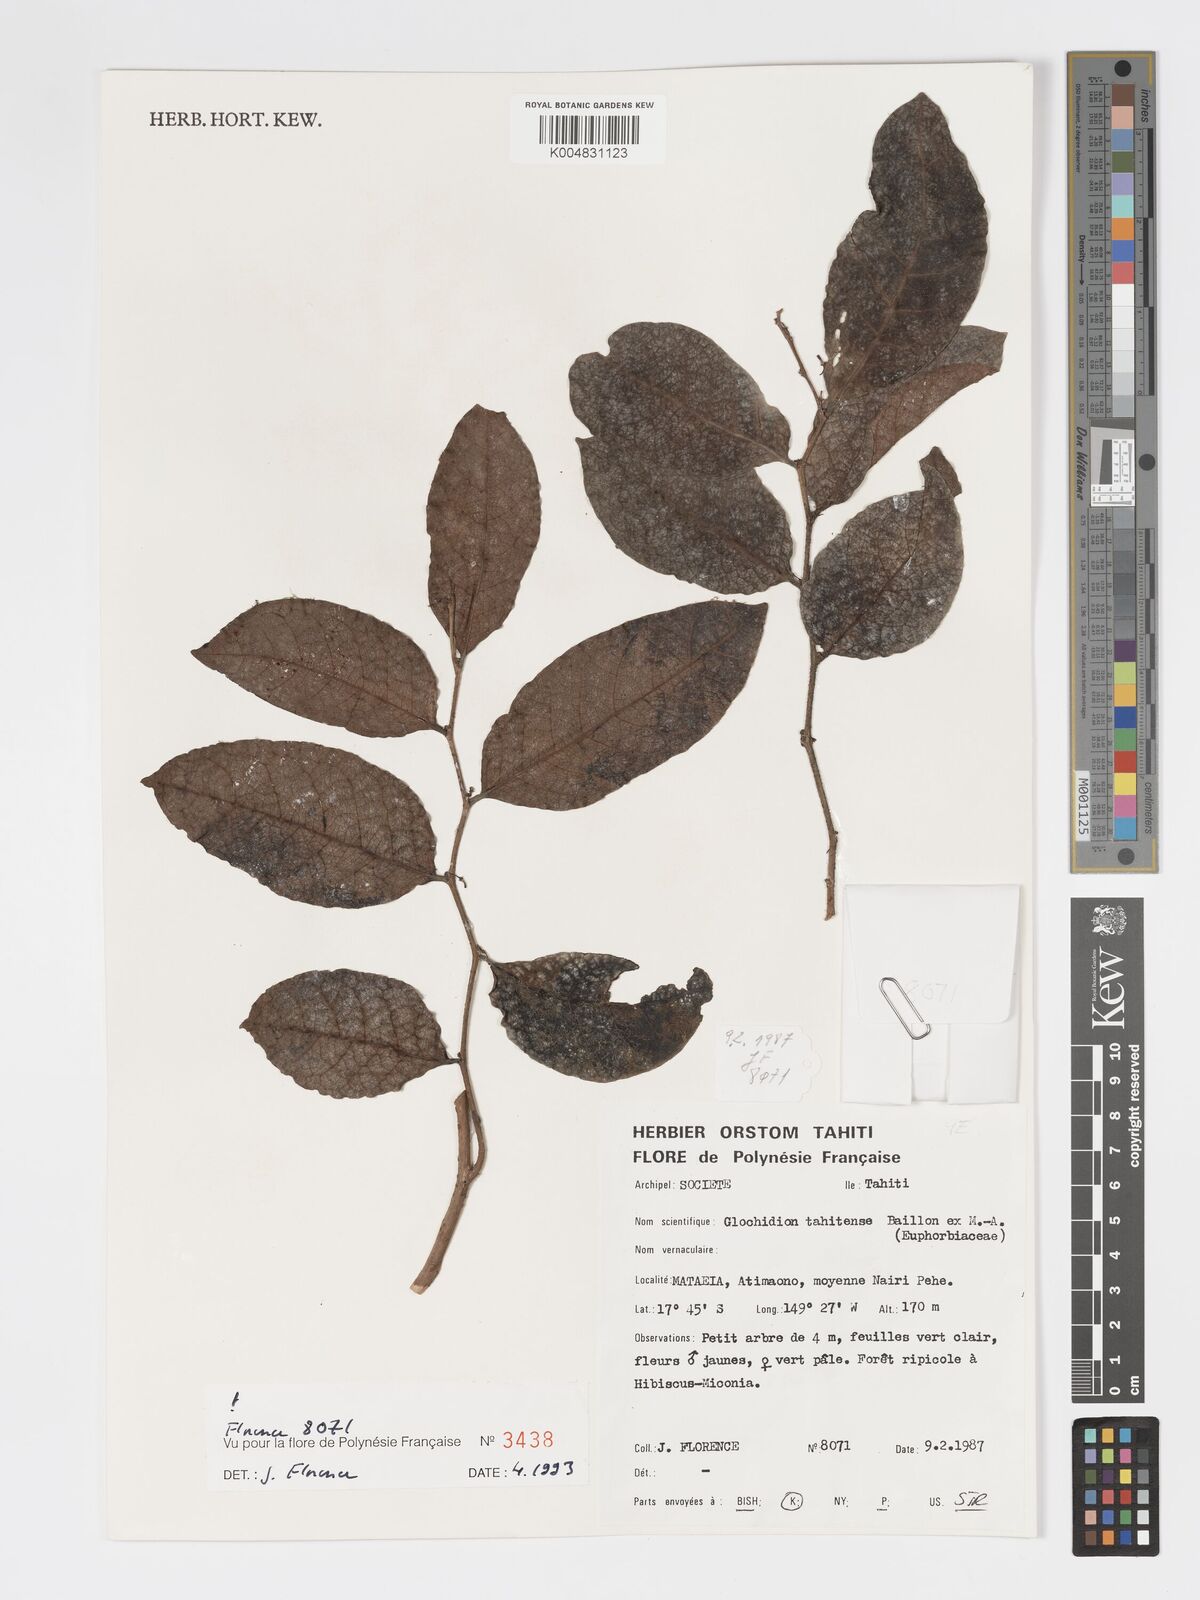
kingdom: Plantae
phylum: Tracheophyta
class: Magnoliopsida
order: Malpighiales
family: Phyllanthaceae
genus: Glochidion
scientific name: Glochidion taitense
